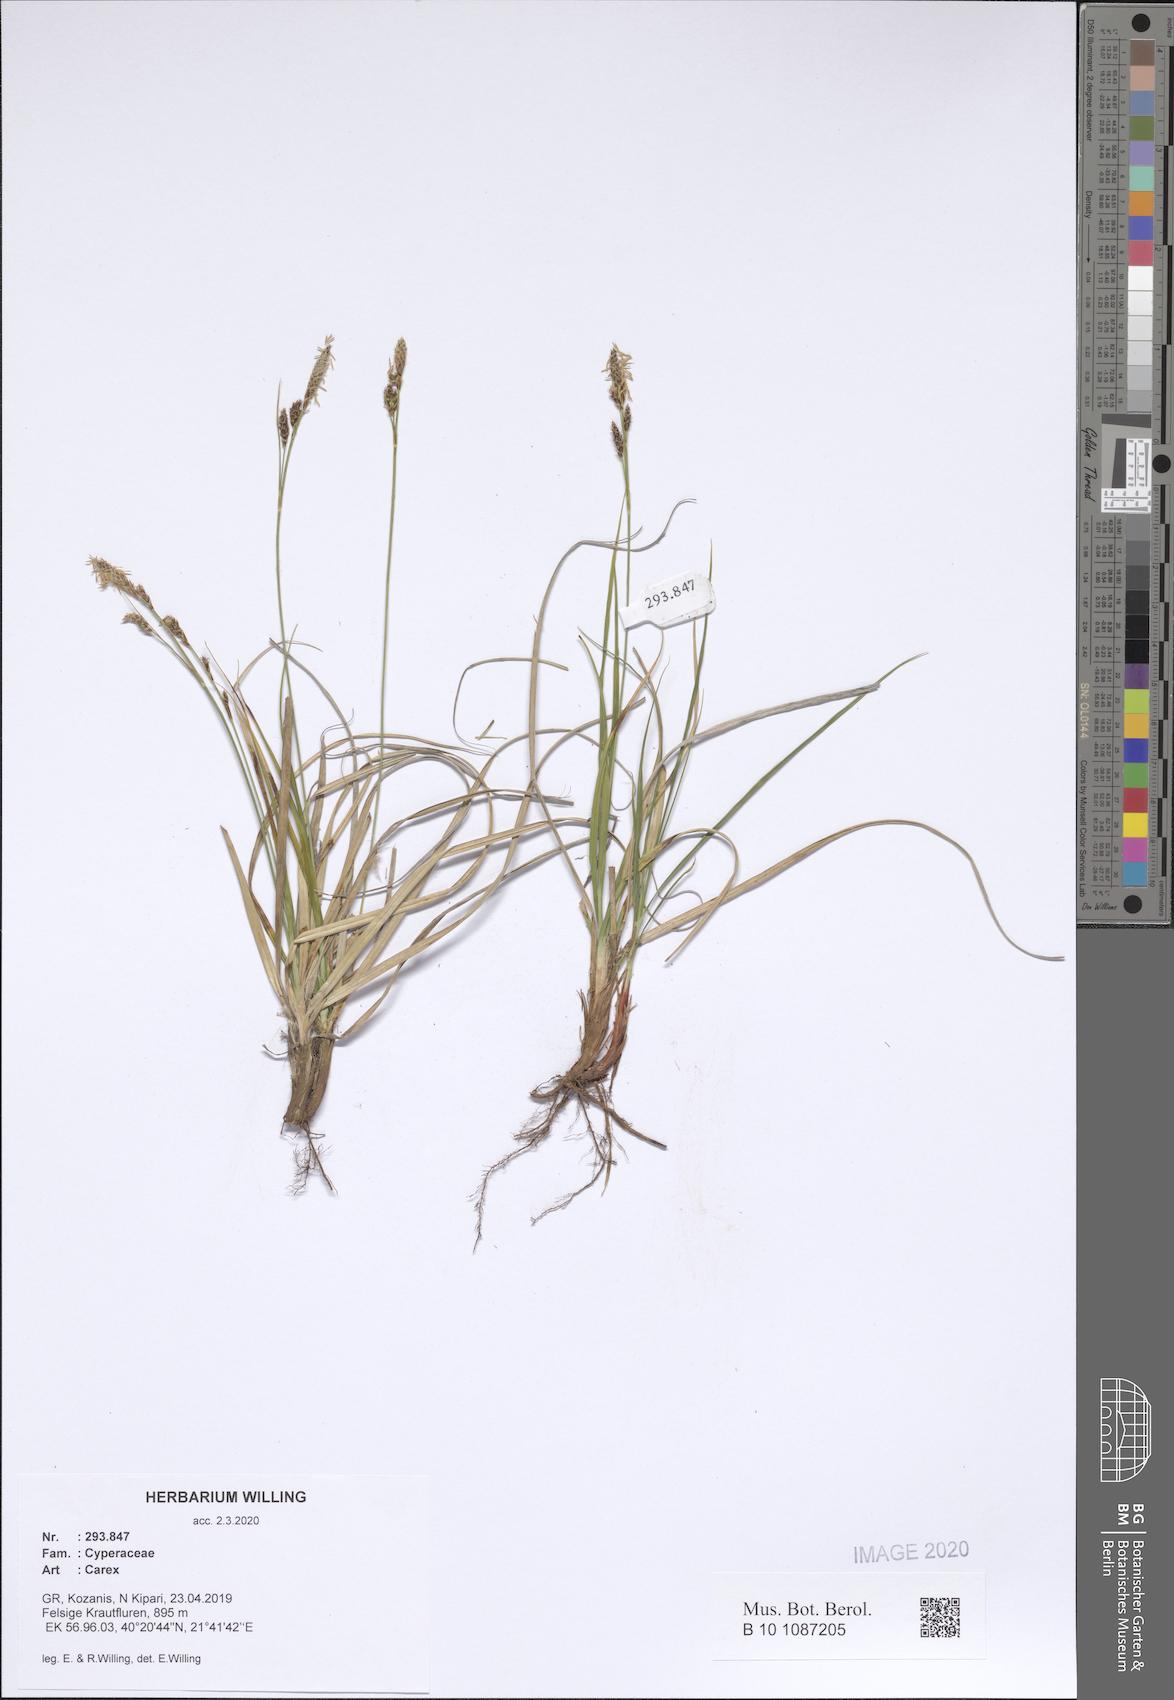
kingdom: Plantae
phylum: Tracheophyta
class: Liliopsida
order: Poales
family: Cyperaceae
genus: Carex
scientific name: Carex
